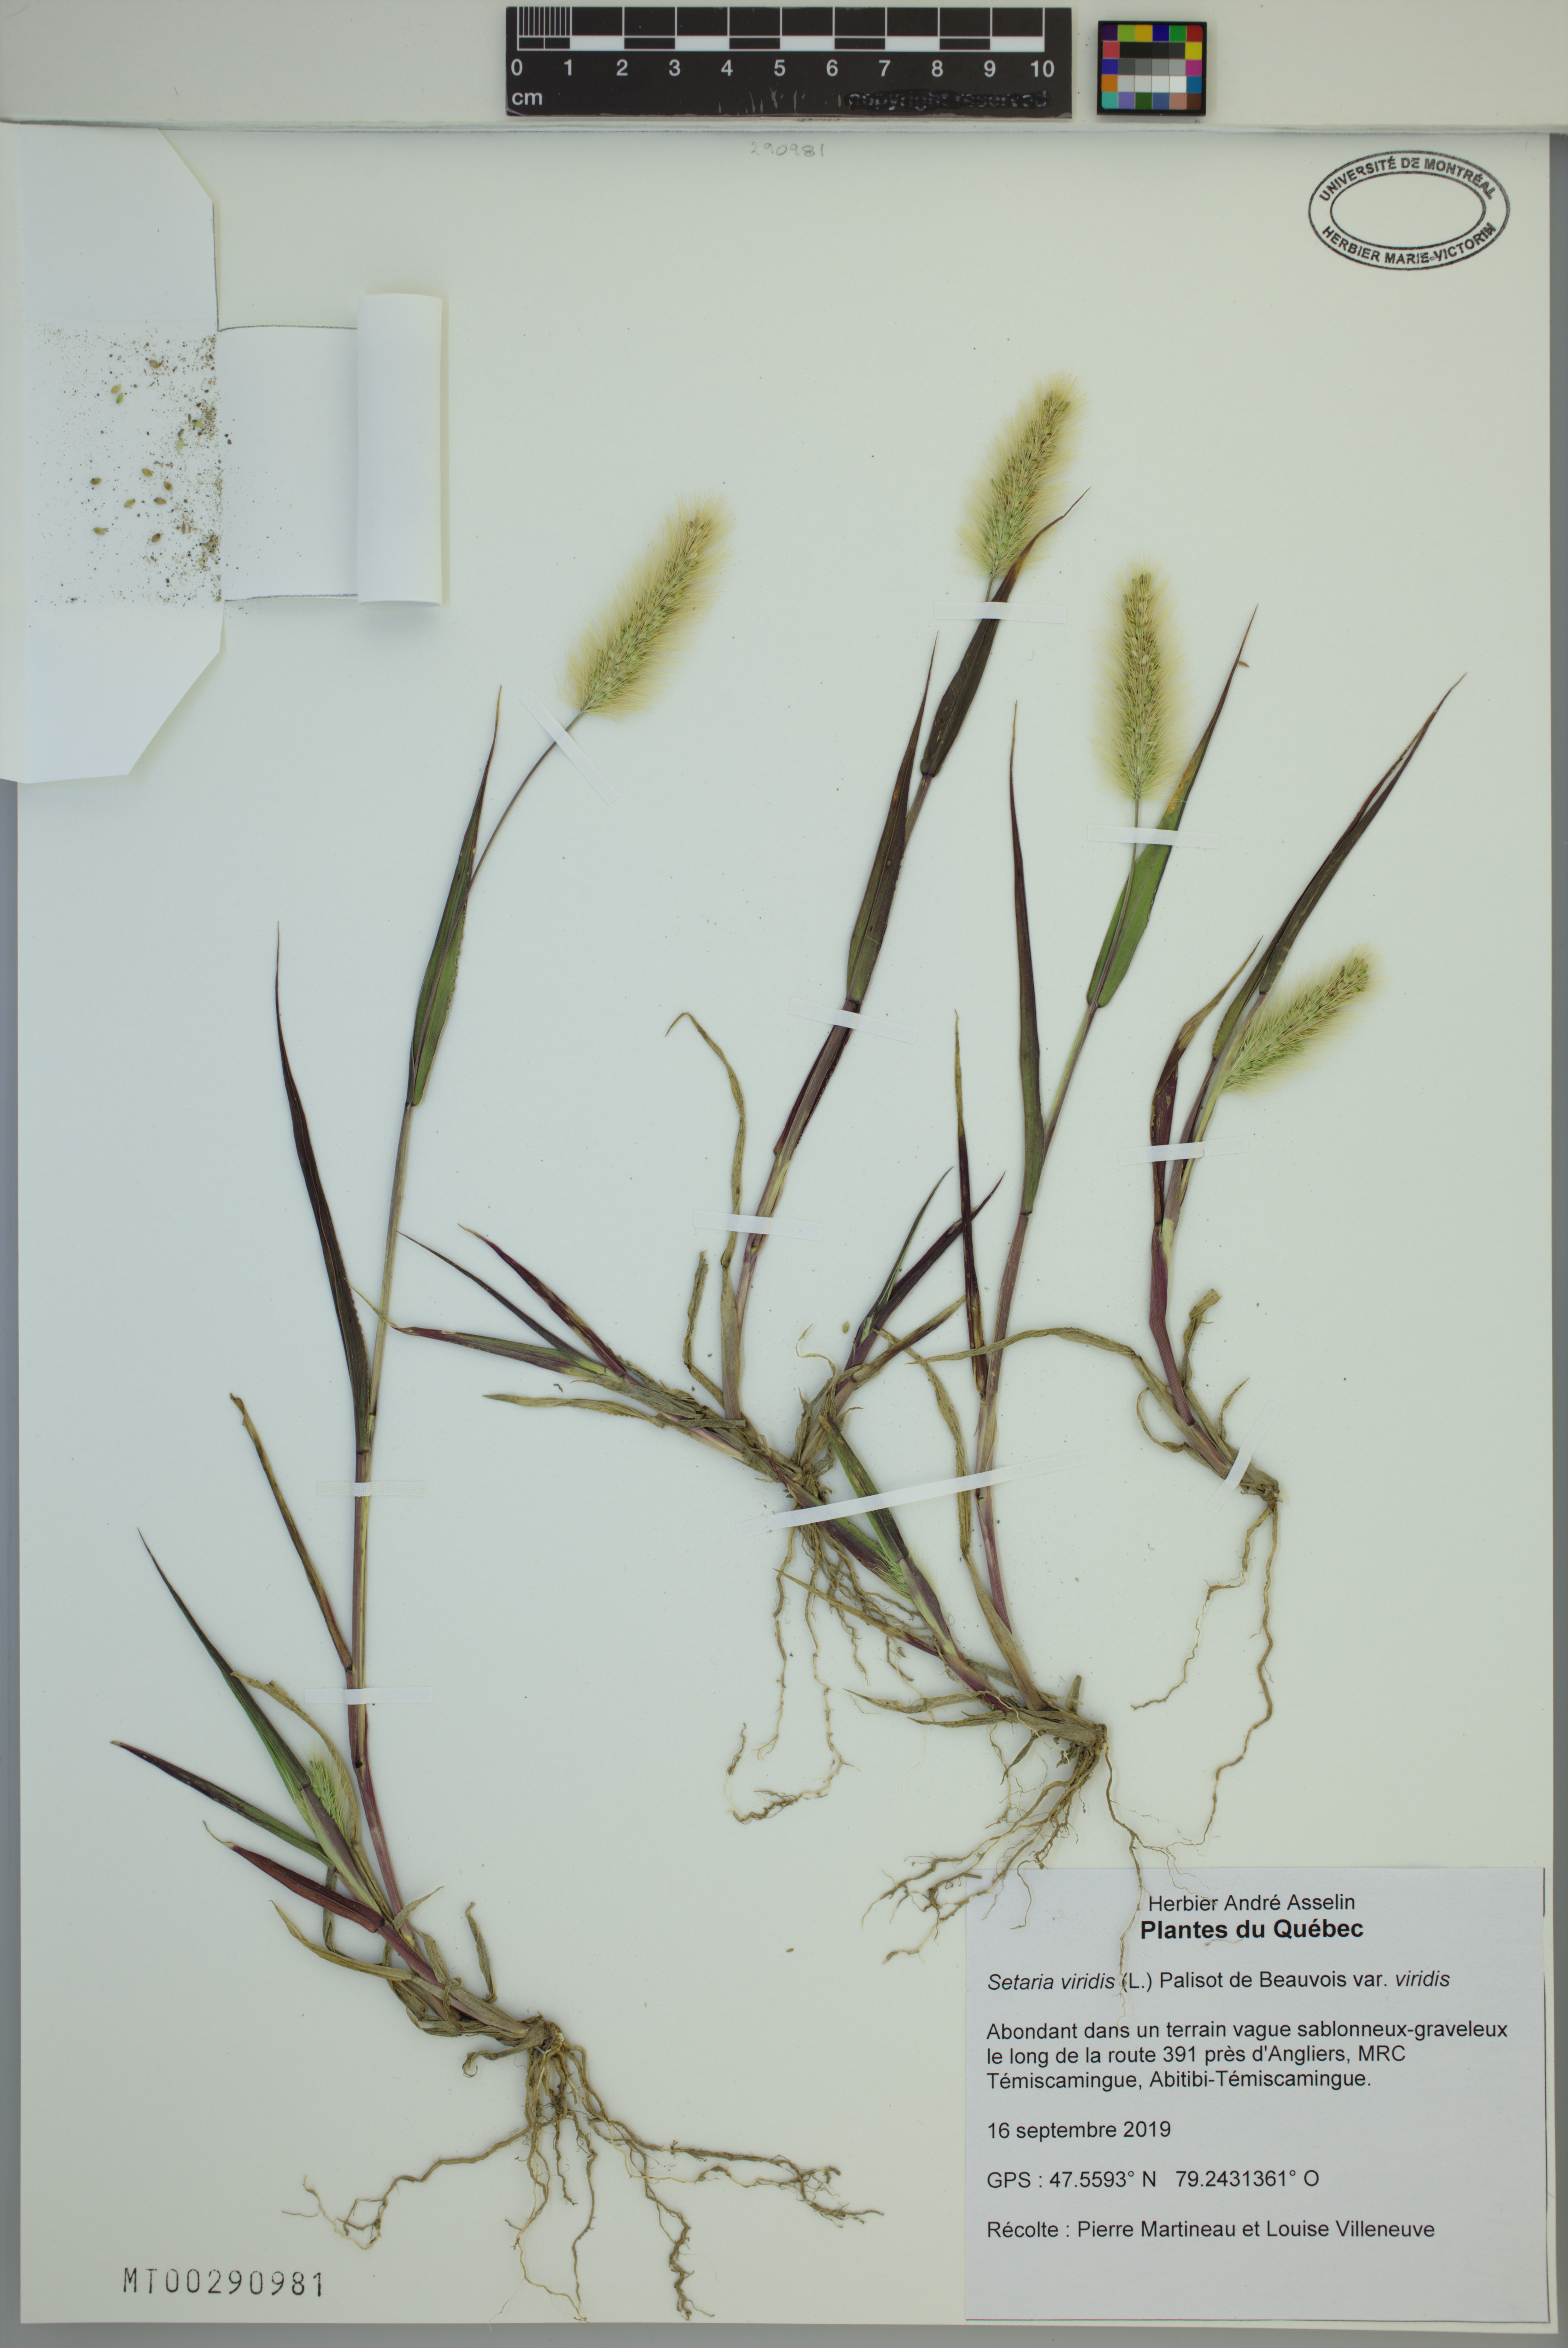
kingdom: Plantae
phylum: Tracheophyta
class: Liliopsida
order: Poales
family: Poaceae
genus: Setaria
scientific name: Setaria viridis
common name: Green bristlegrass
